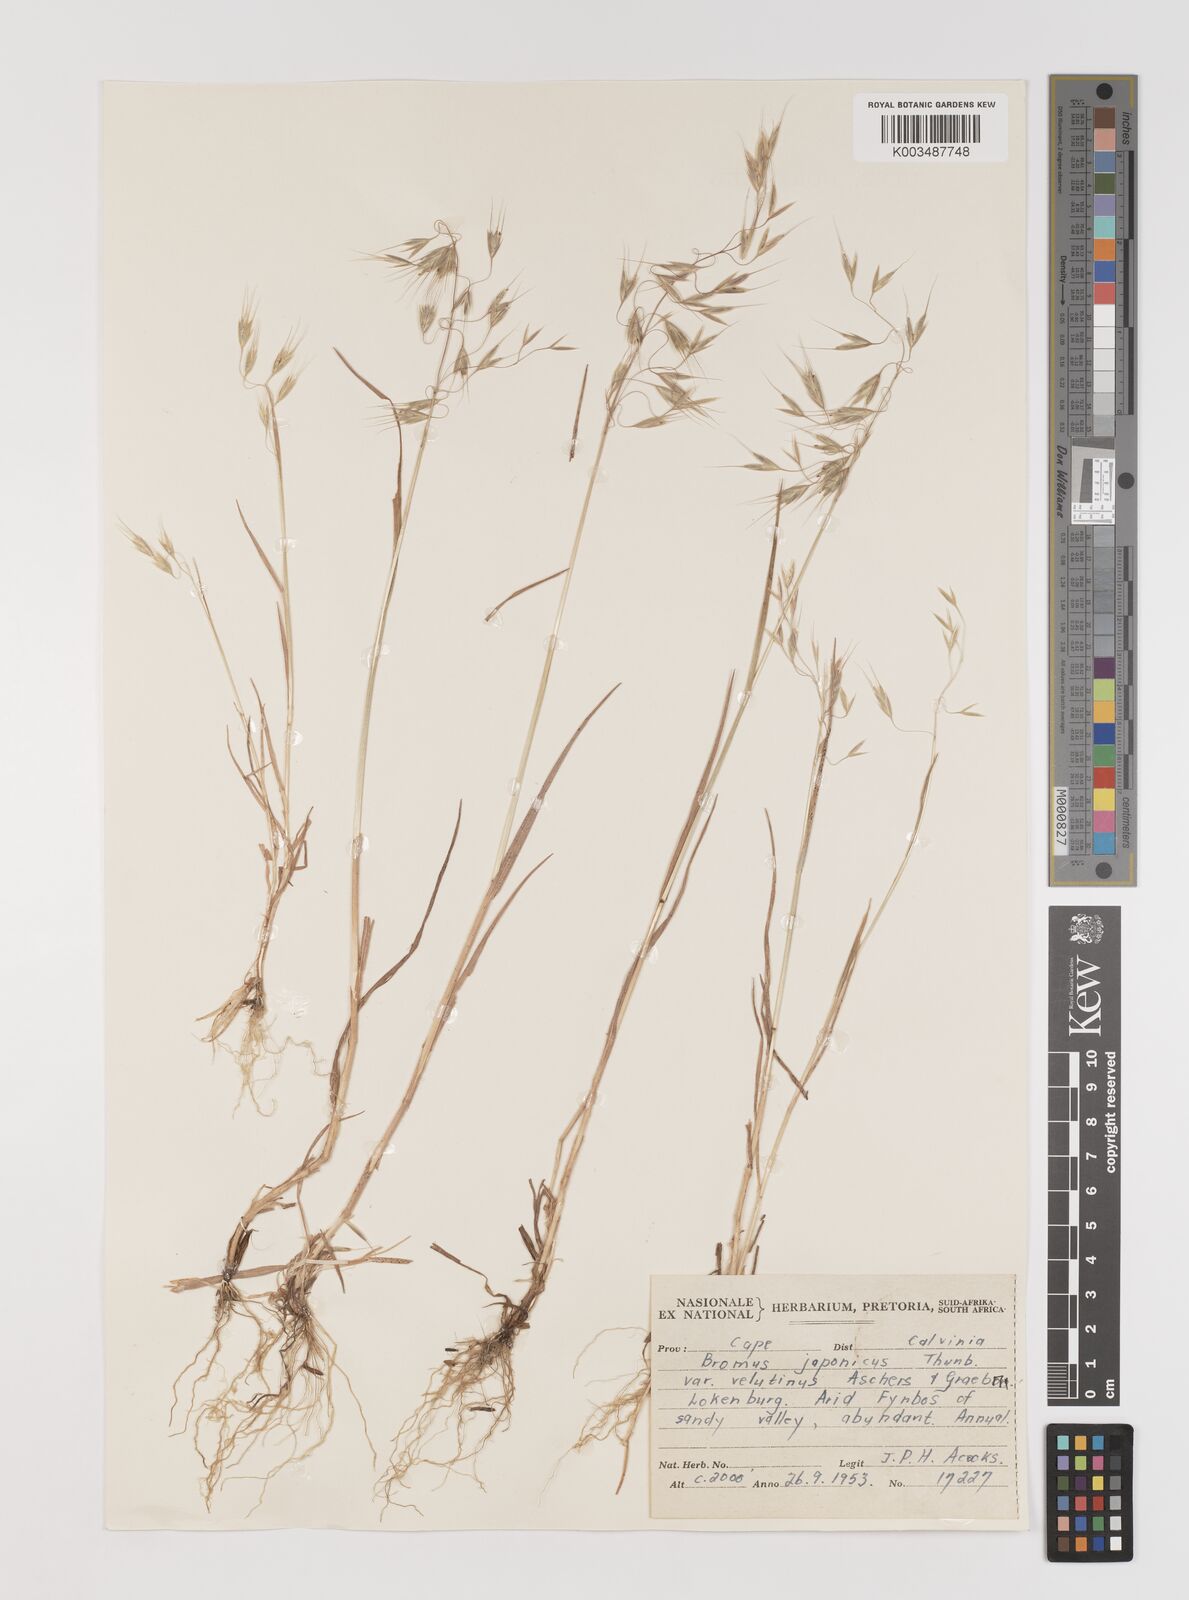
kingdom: Plantae
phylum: Tracheophyta
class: Liliopsida
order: Poales
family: Poaceae
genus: Bromus
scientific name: Bromus pectinatus
